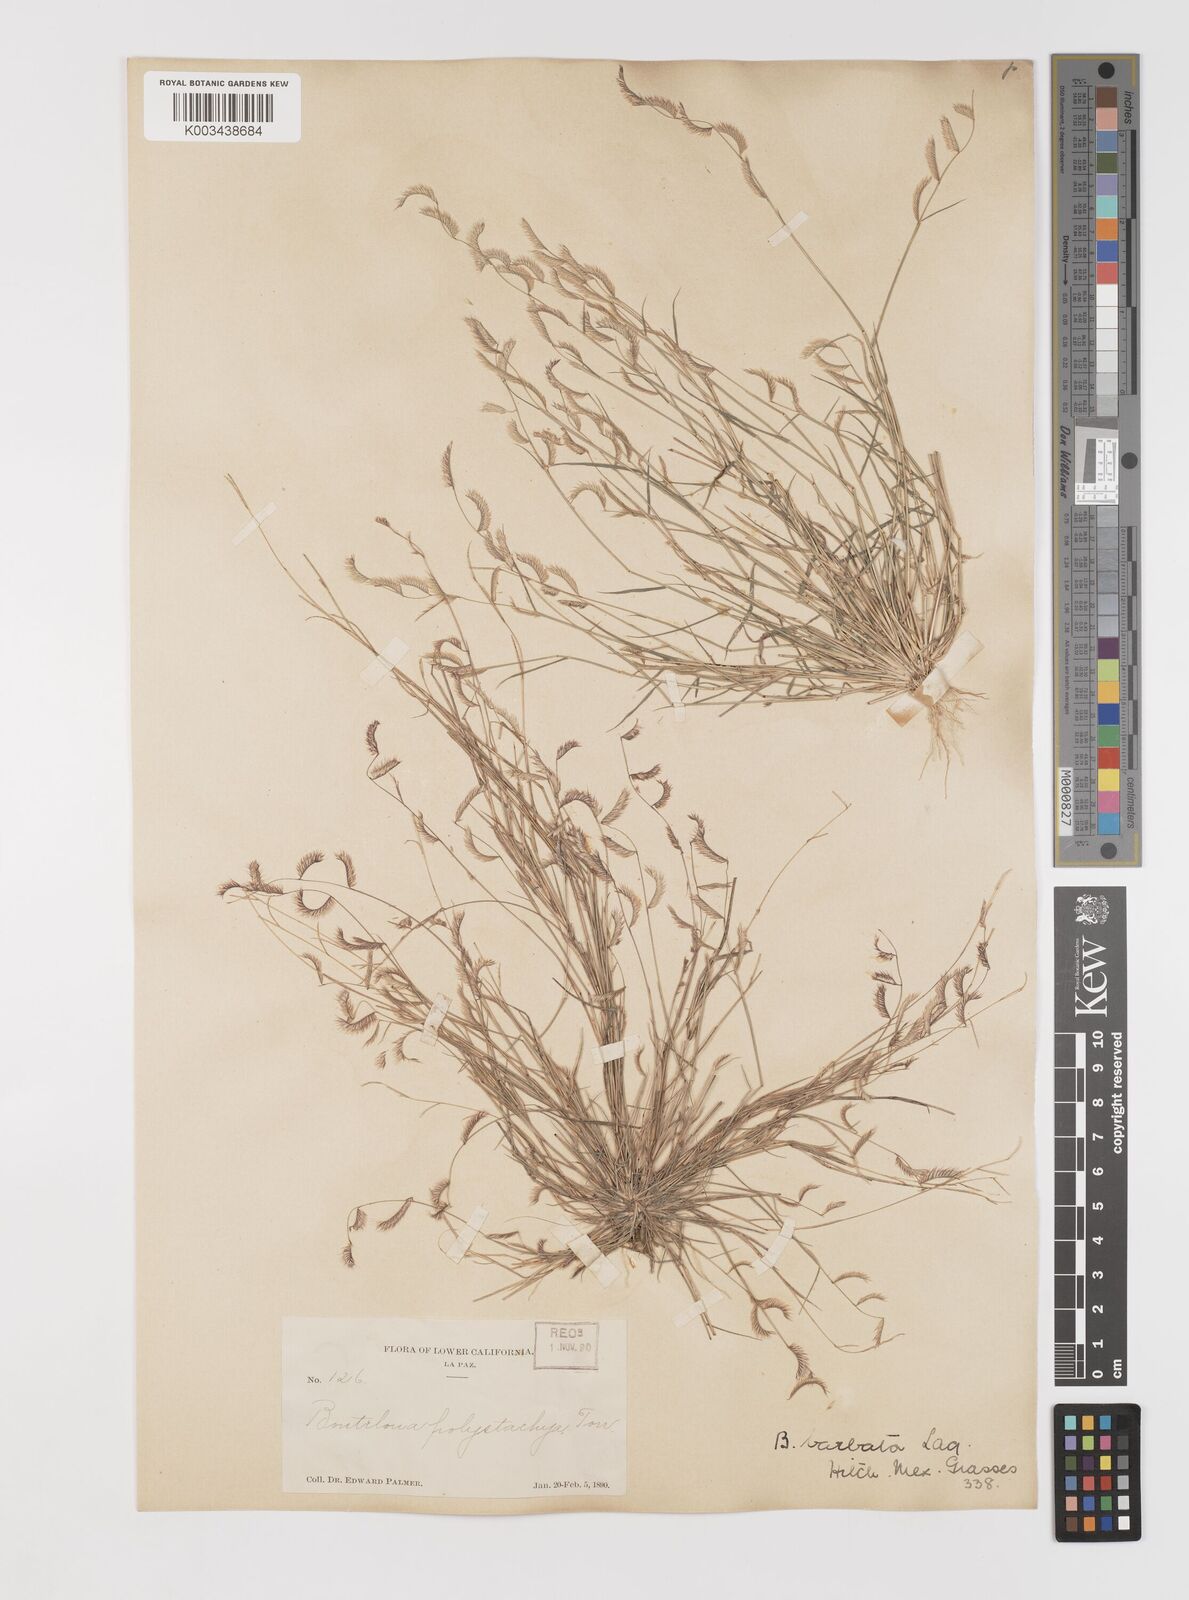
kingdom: Plantae
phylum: Tracheophyta
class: Liliopsida
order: Poales
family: Poaceae
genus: Bouteloua
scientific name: Bouteloua
